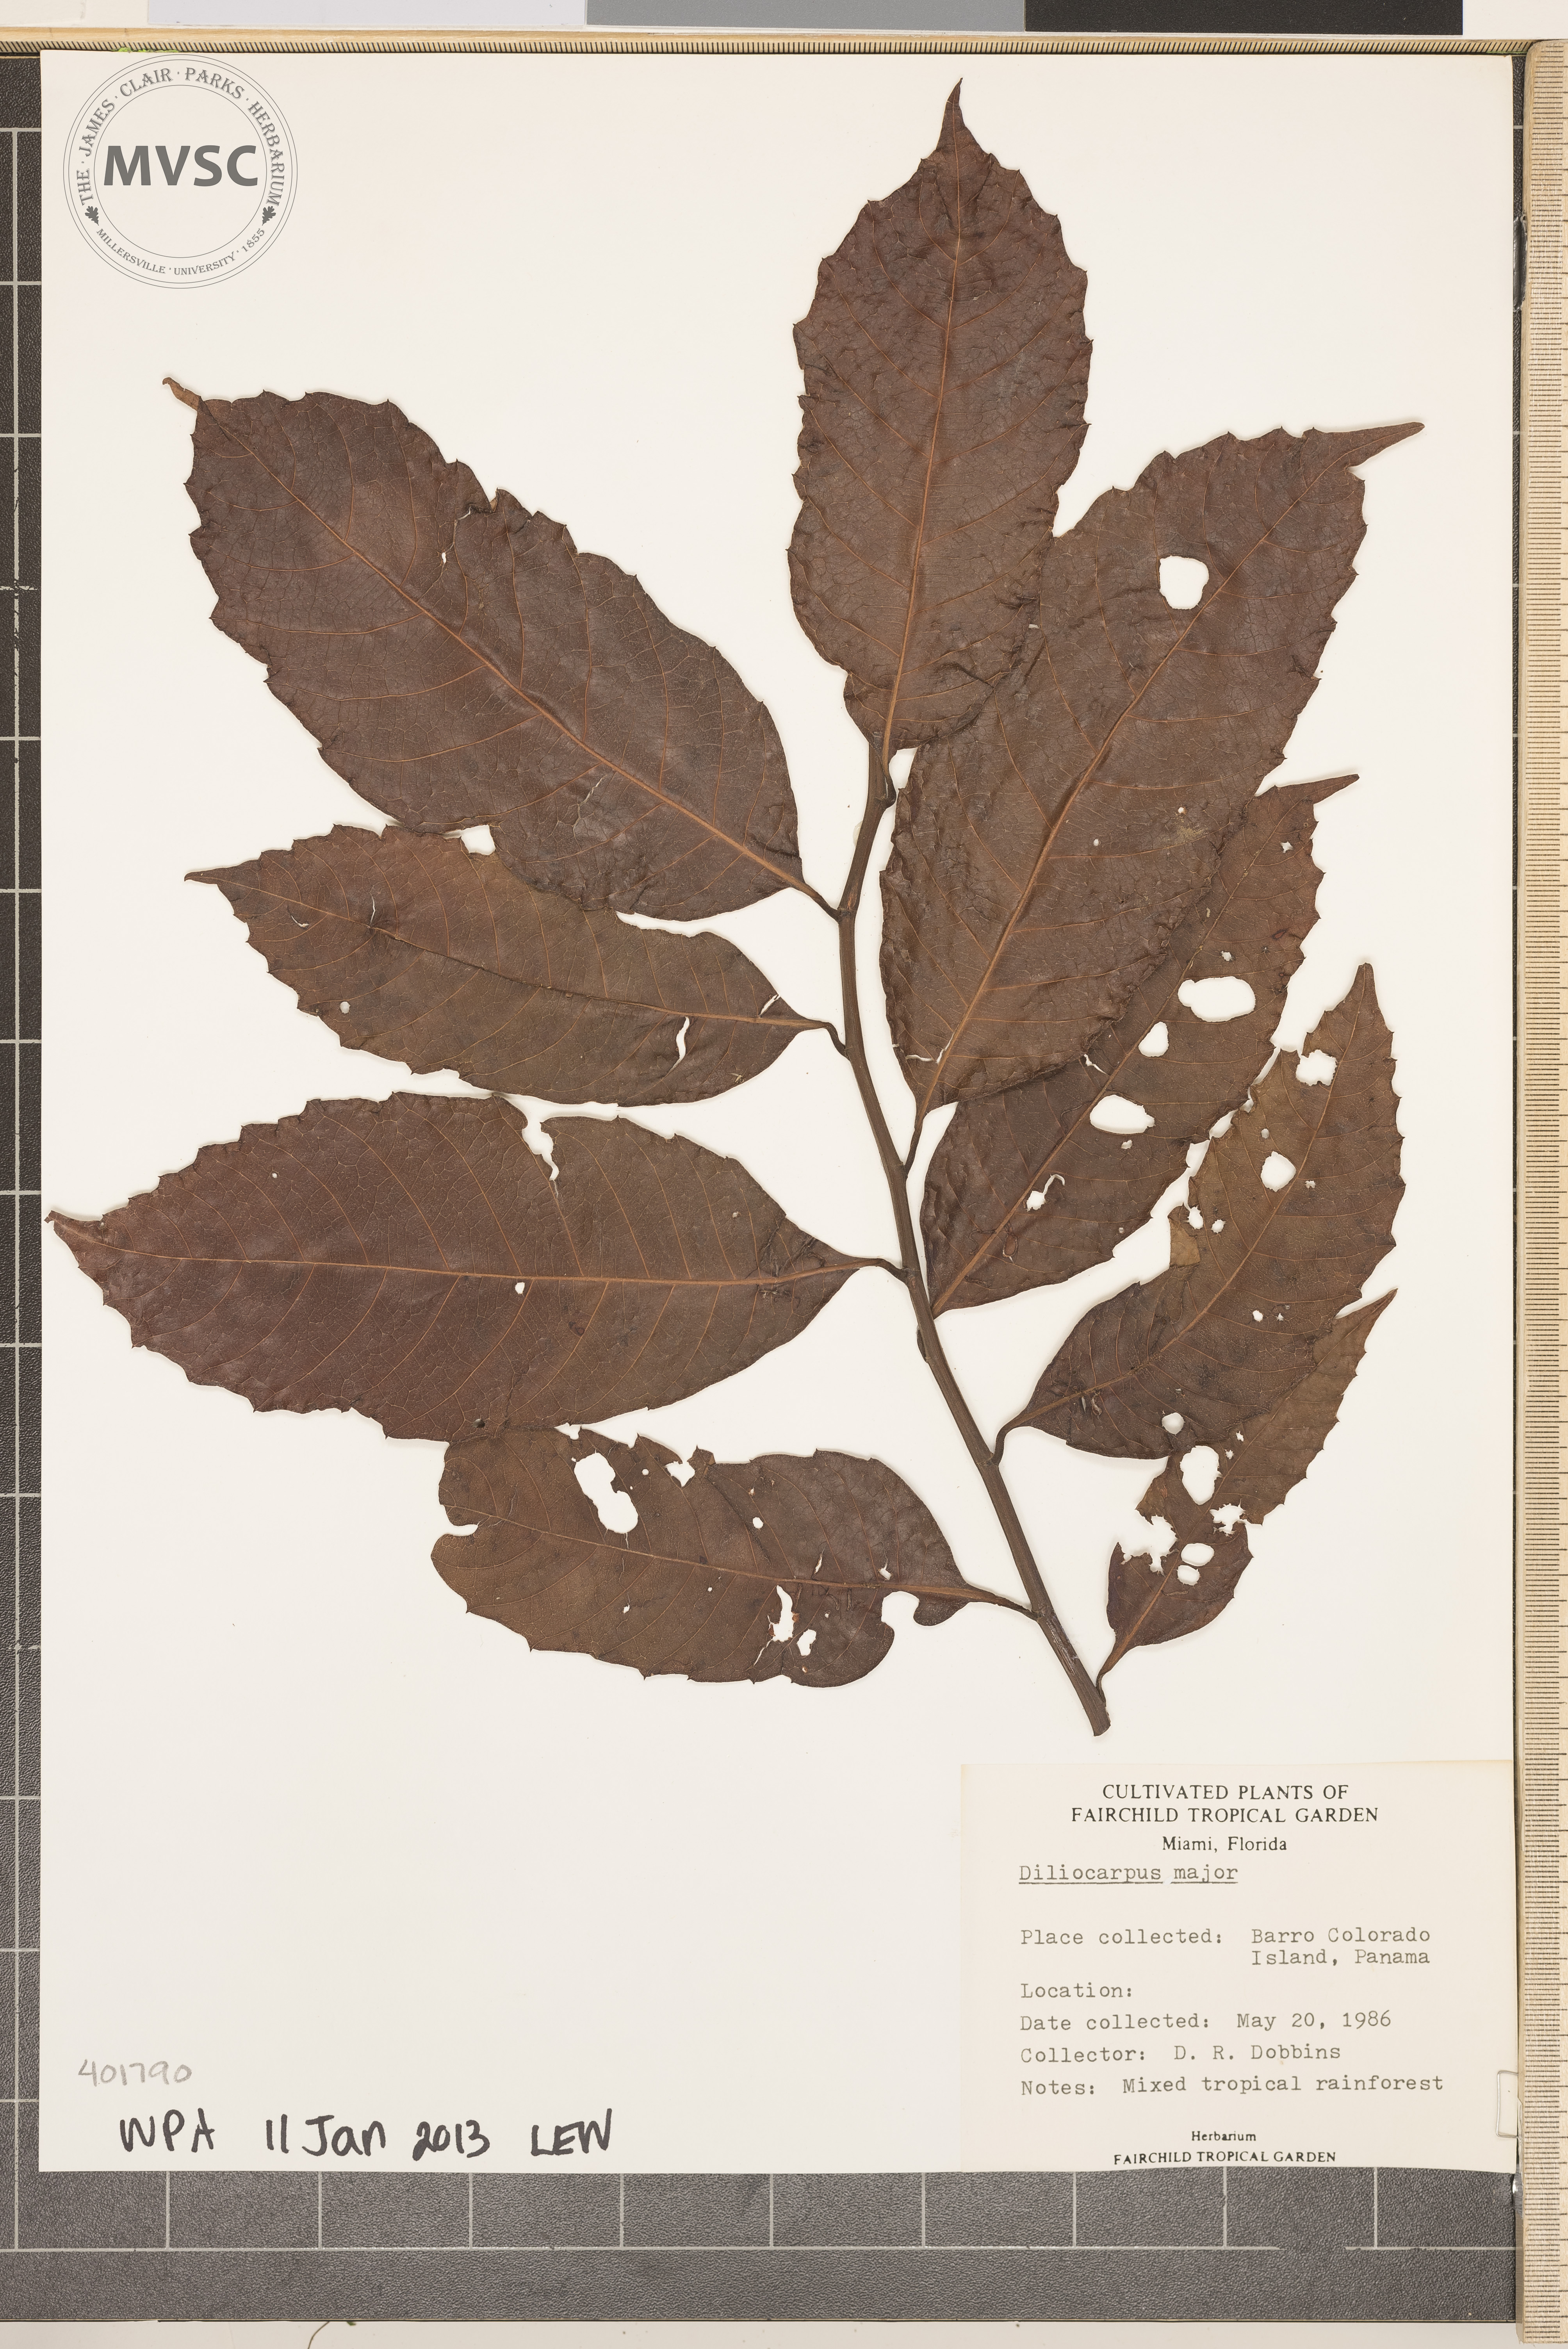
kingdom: Plantae
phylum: Tracheophyta
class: Magnoliopsida
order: Dilleniales
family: Dilleniaceae
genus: Doliocarpus
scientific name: Doliocarpus major
